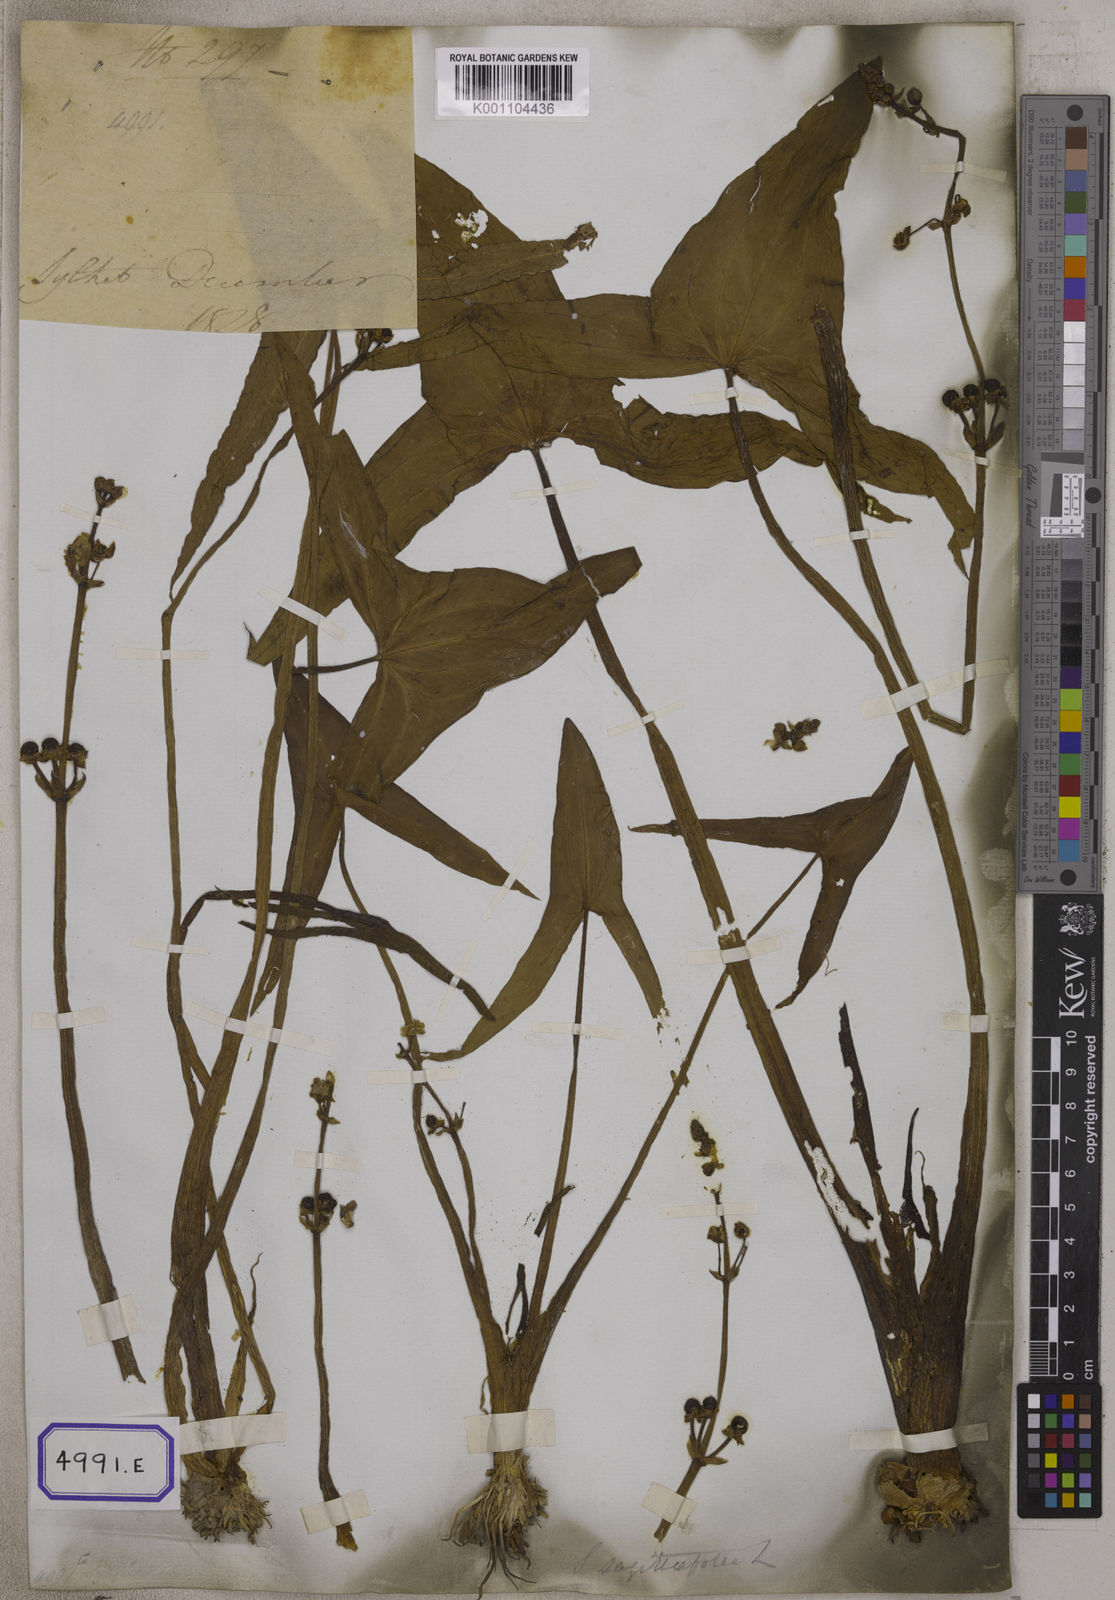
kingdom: Plantae
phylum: Tracheophyta
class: Liliopsida
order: Alismatales
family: Alismataceae
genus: Sagittaria
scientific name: Sagittaria sagittifolia
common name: Arrowhead
